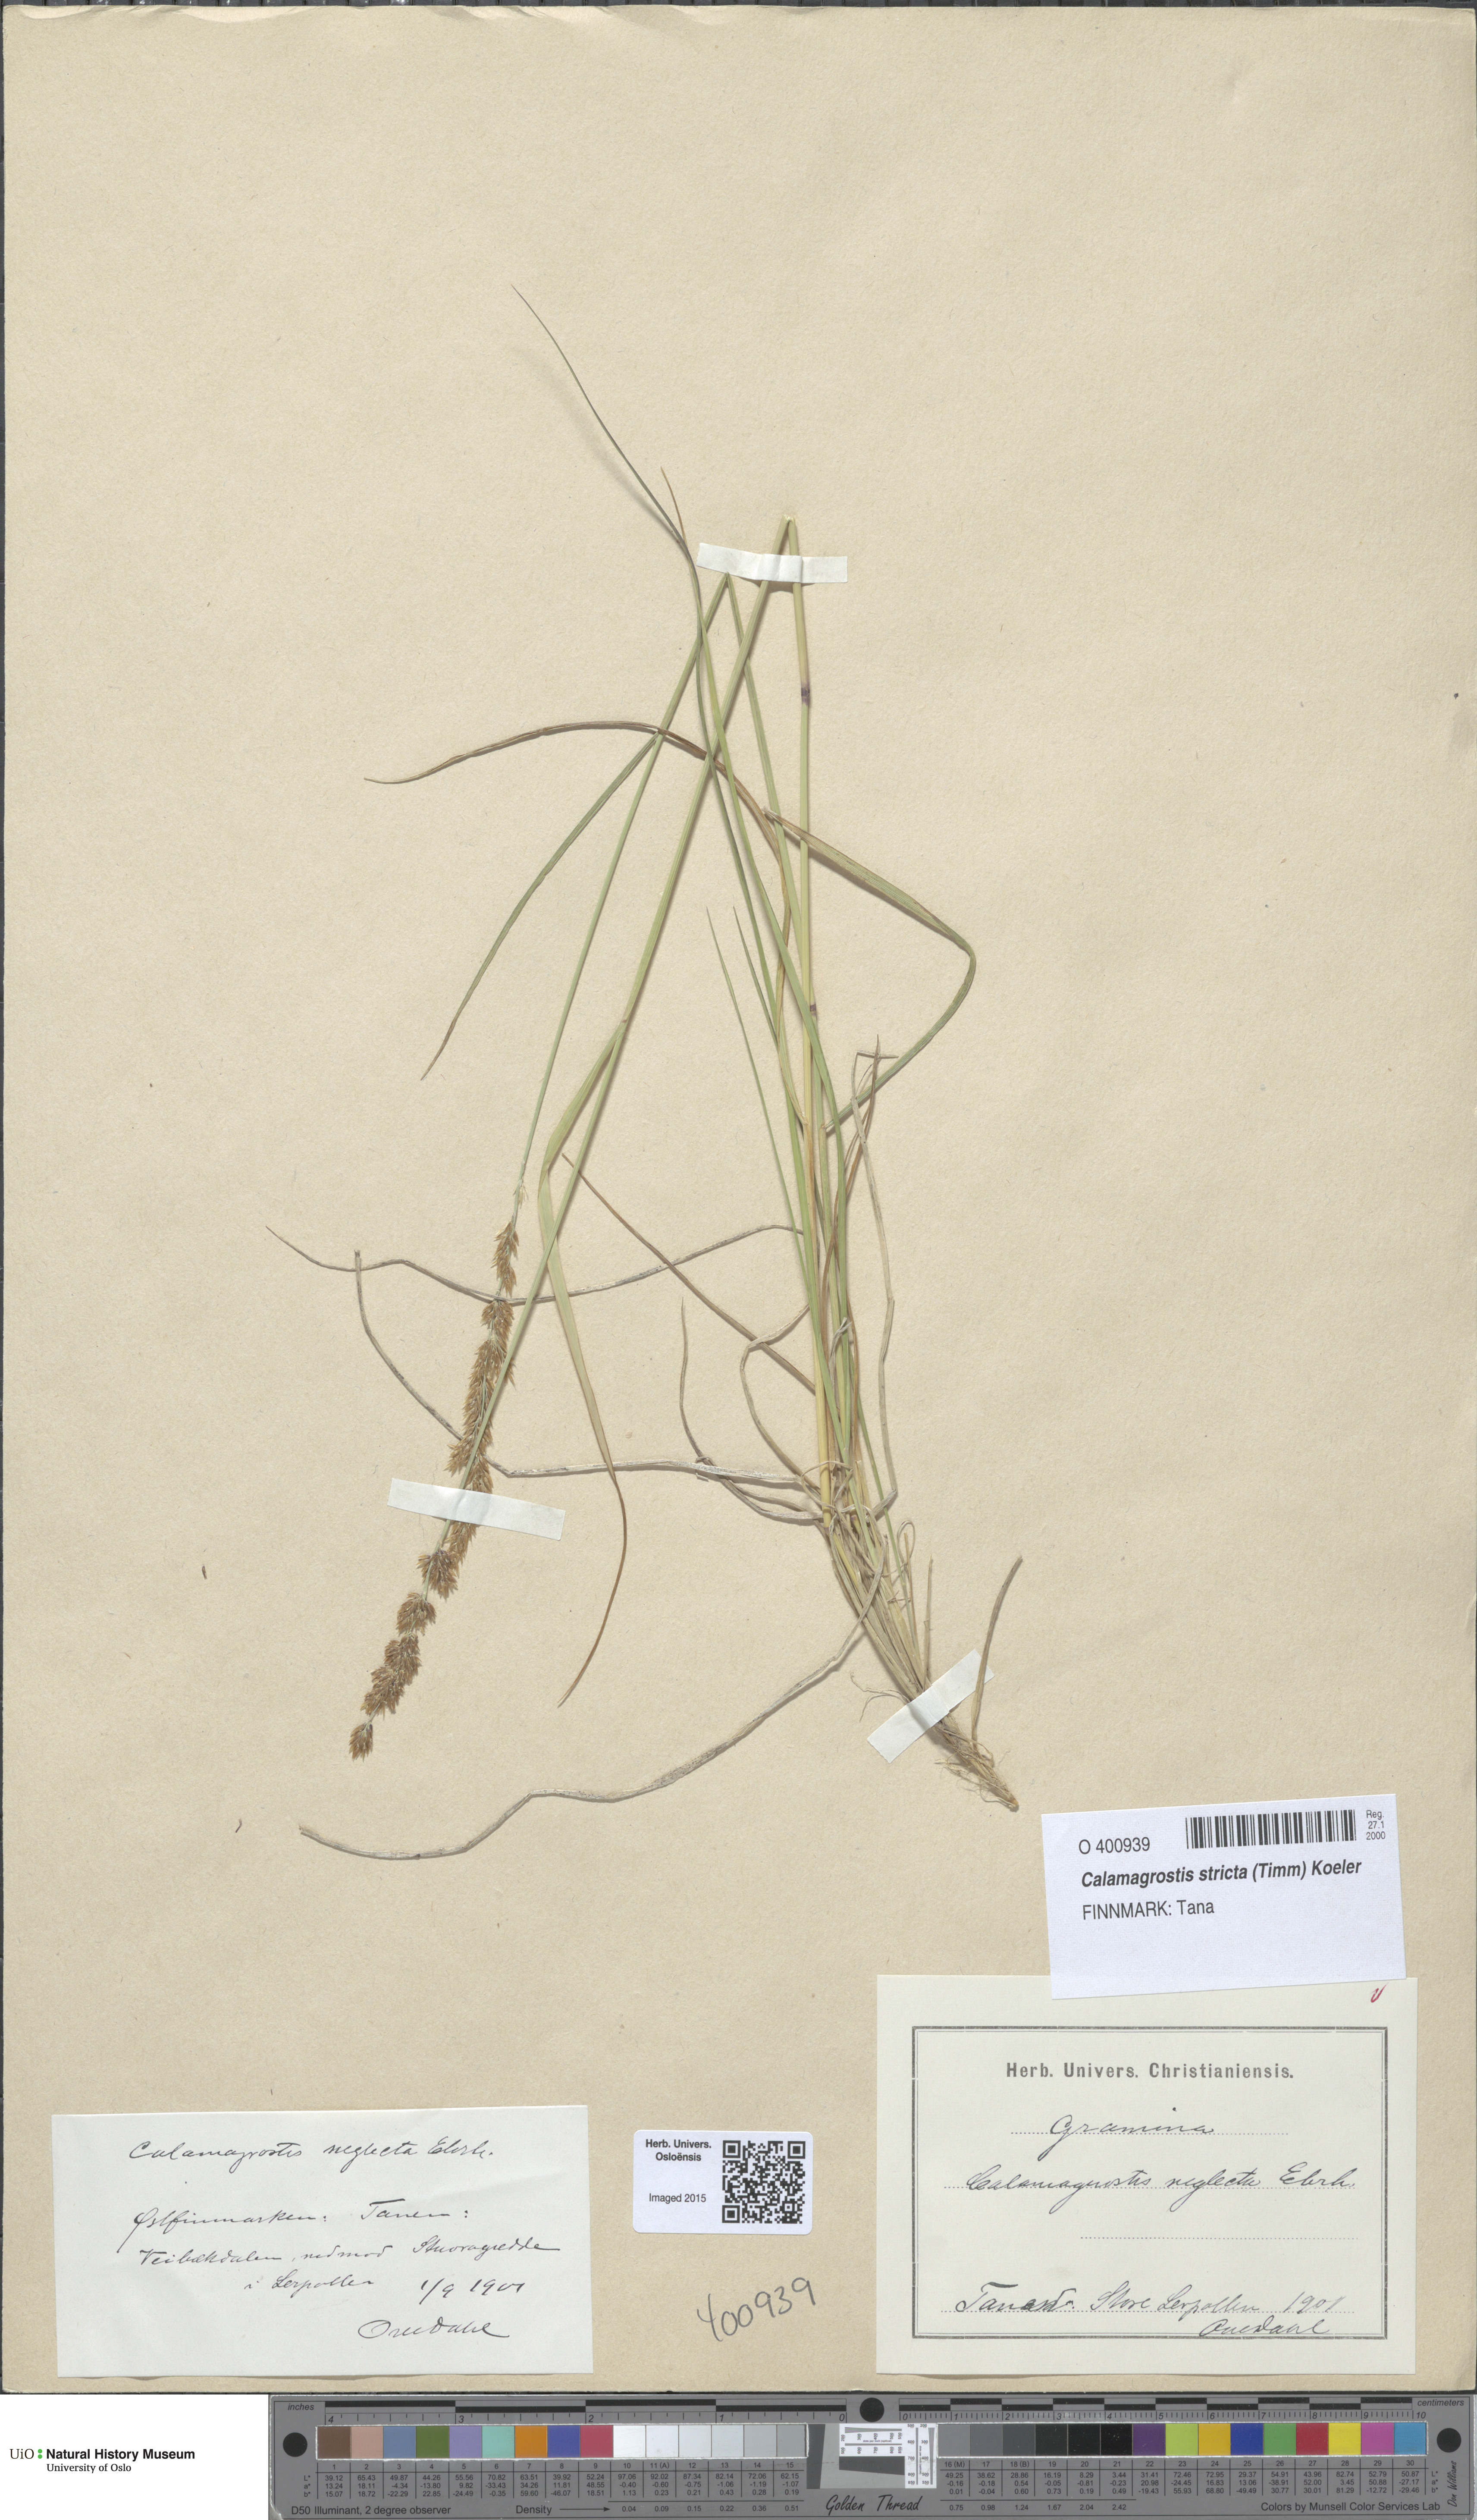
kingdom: Plantae
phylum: Tracheophyta
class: Liliopsida
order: Poales
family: Poaceae
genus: Achnatherum
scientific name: Achnatherum calamagrostis
